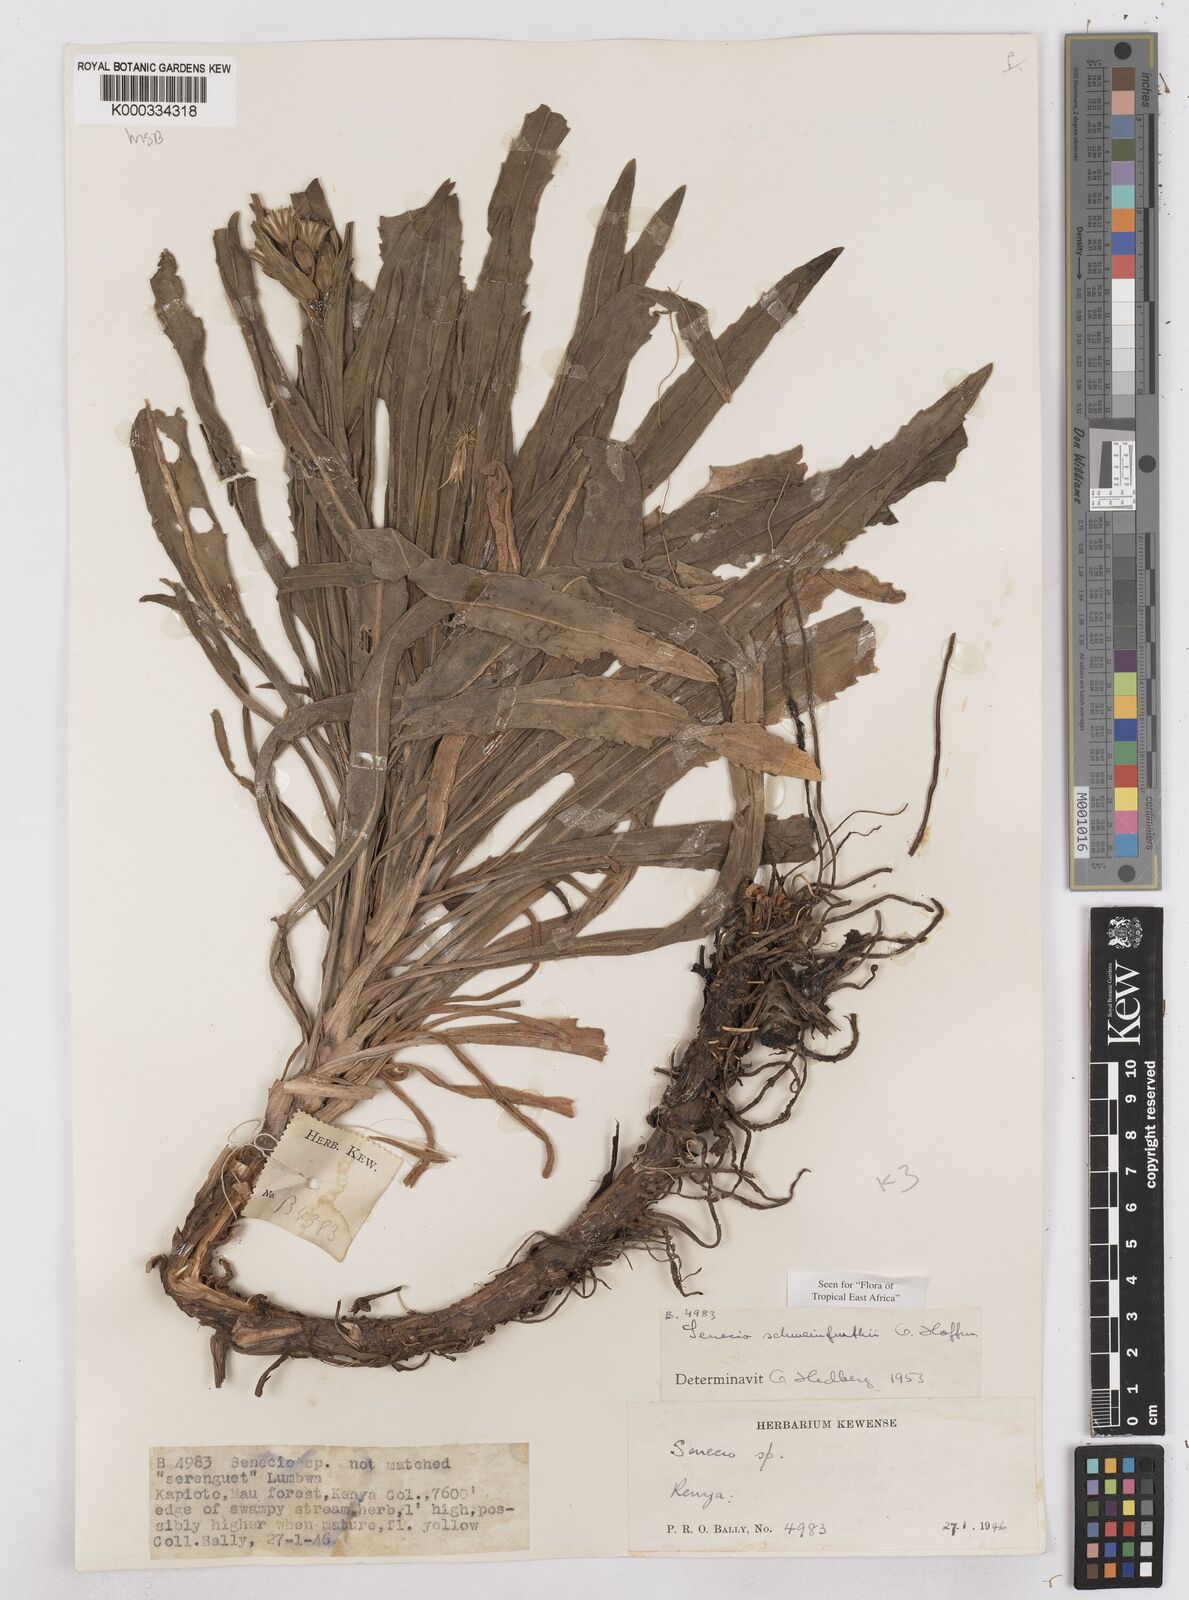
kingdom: Plantae
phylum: Tracheophyta
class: Magnoliopsida
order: Asterales
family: Asteraceae
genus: Senecio
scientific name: Senecio schweinfurthii
